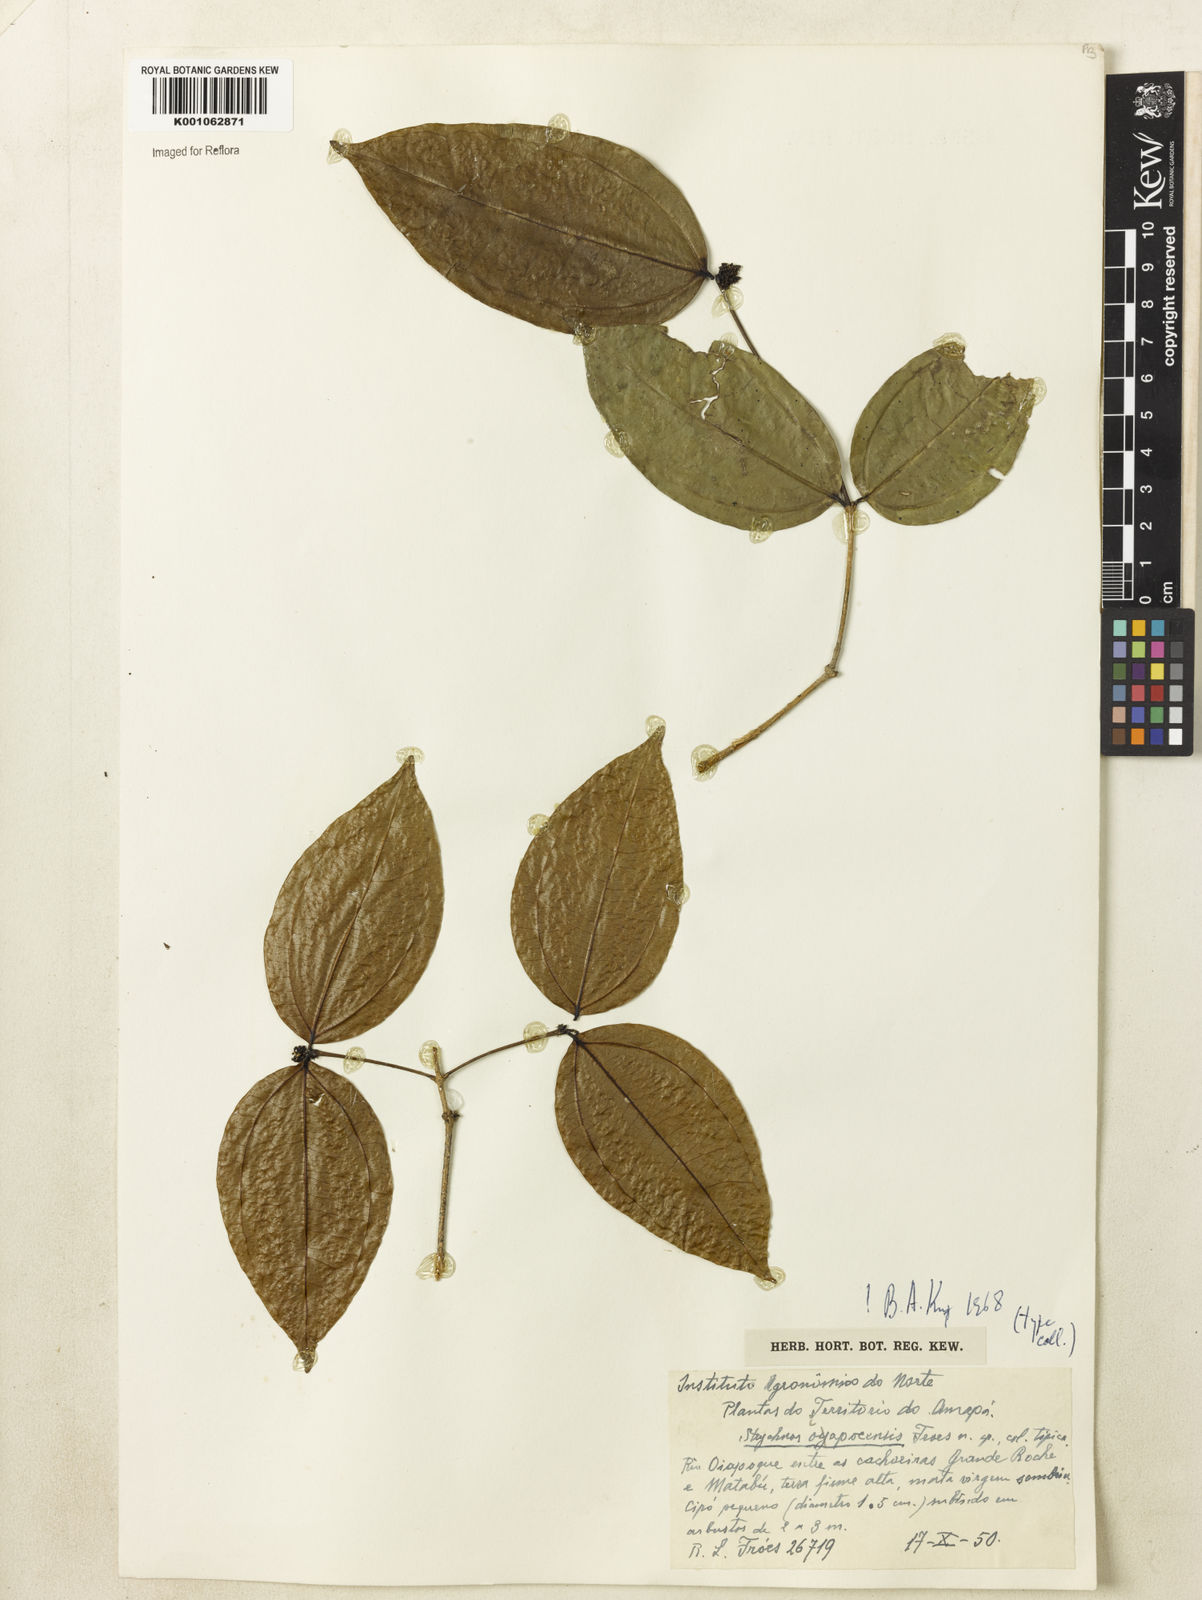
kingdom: Plantae
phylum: Tracheophyta
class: Magnoliopsida
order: Gentianales
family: Loganiaceae
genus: Strychnos
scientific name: Strychnos
